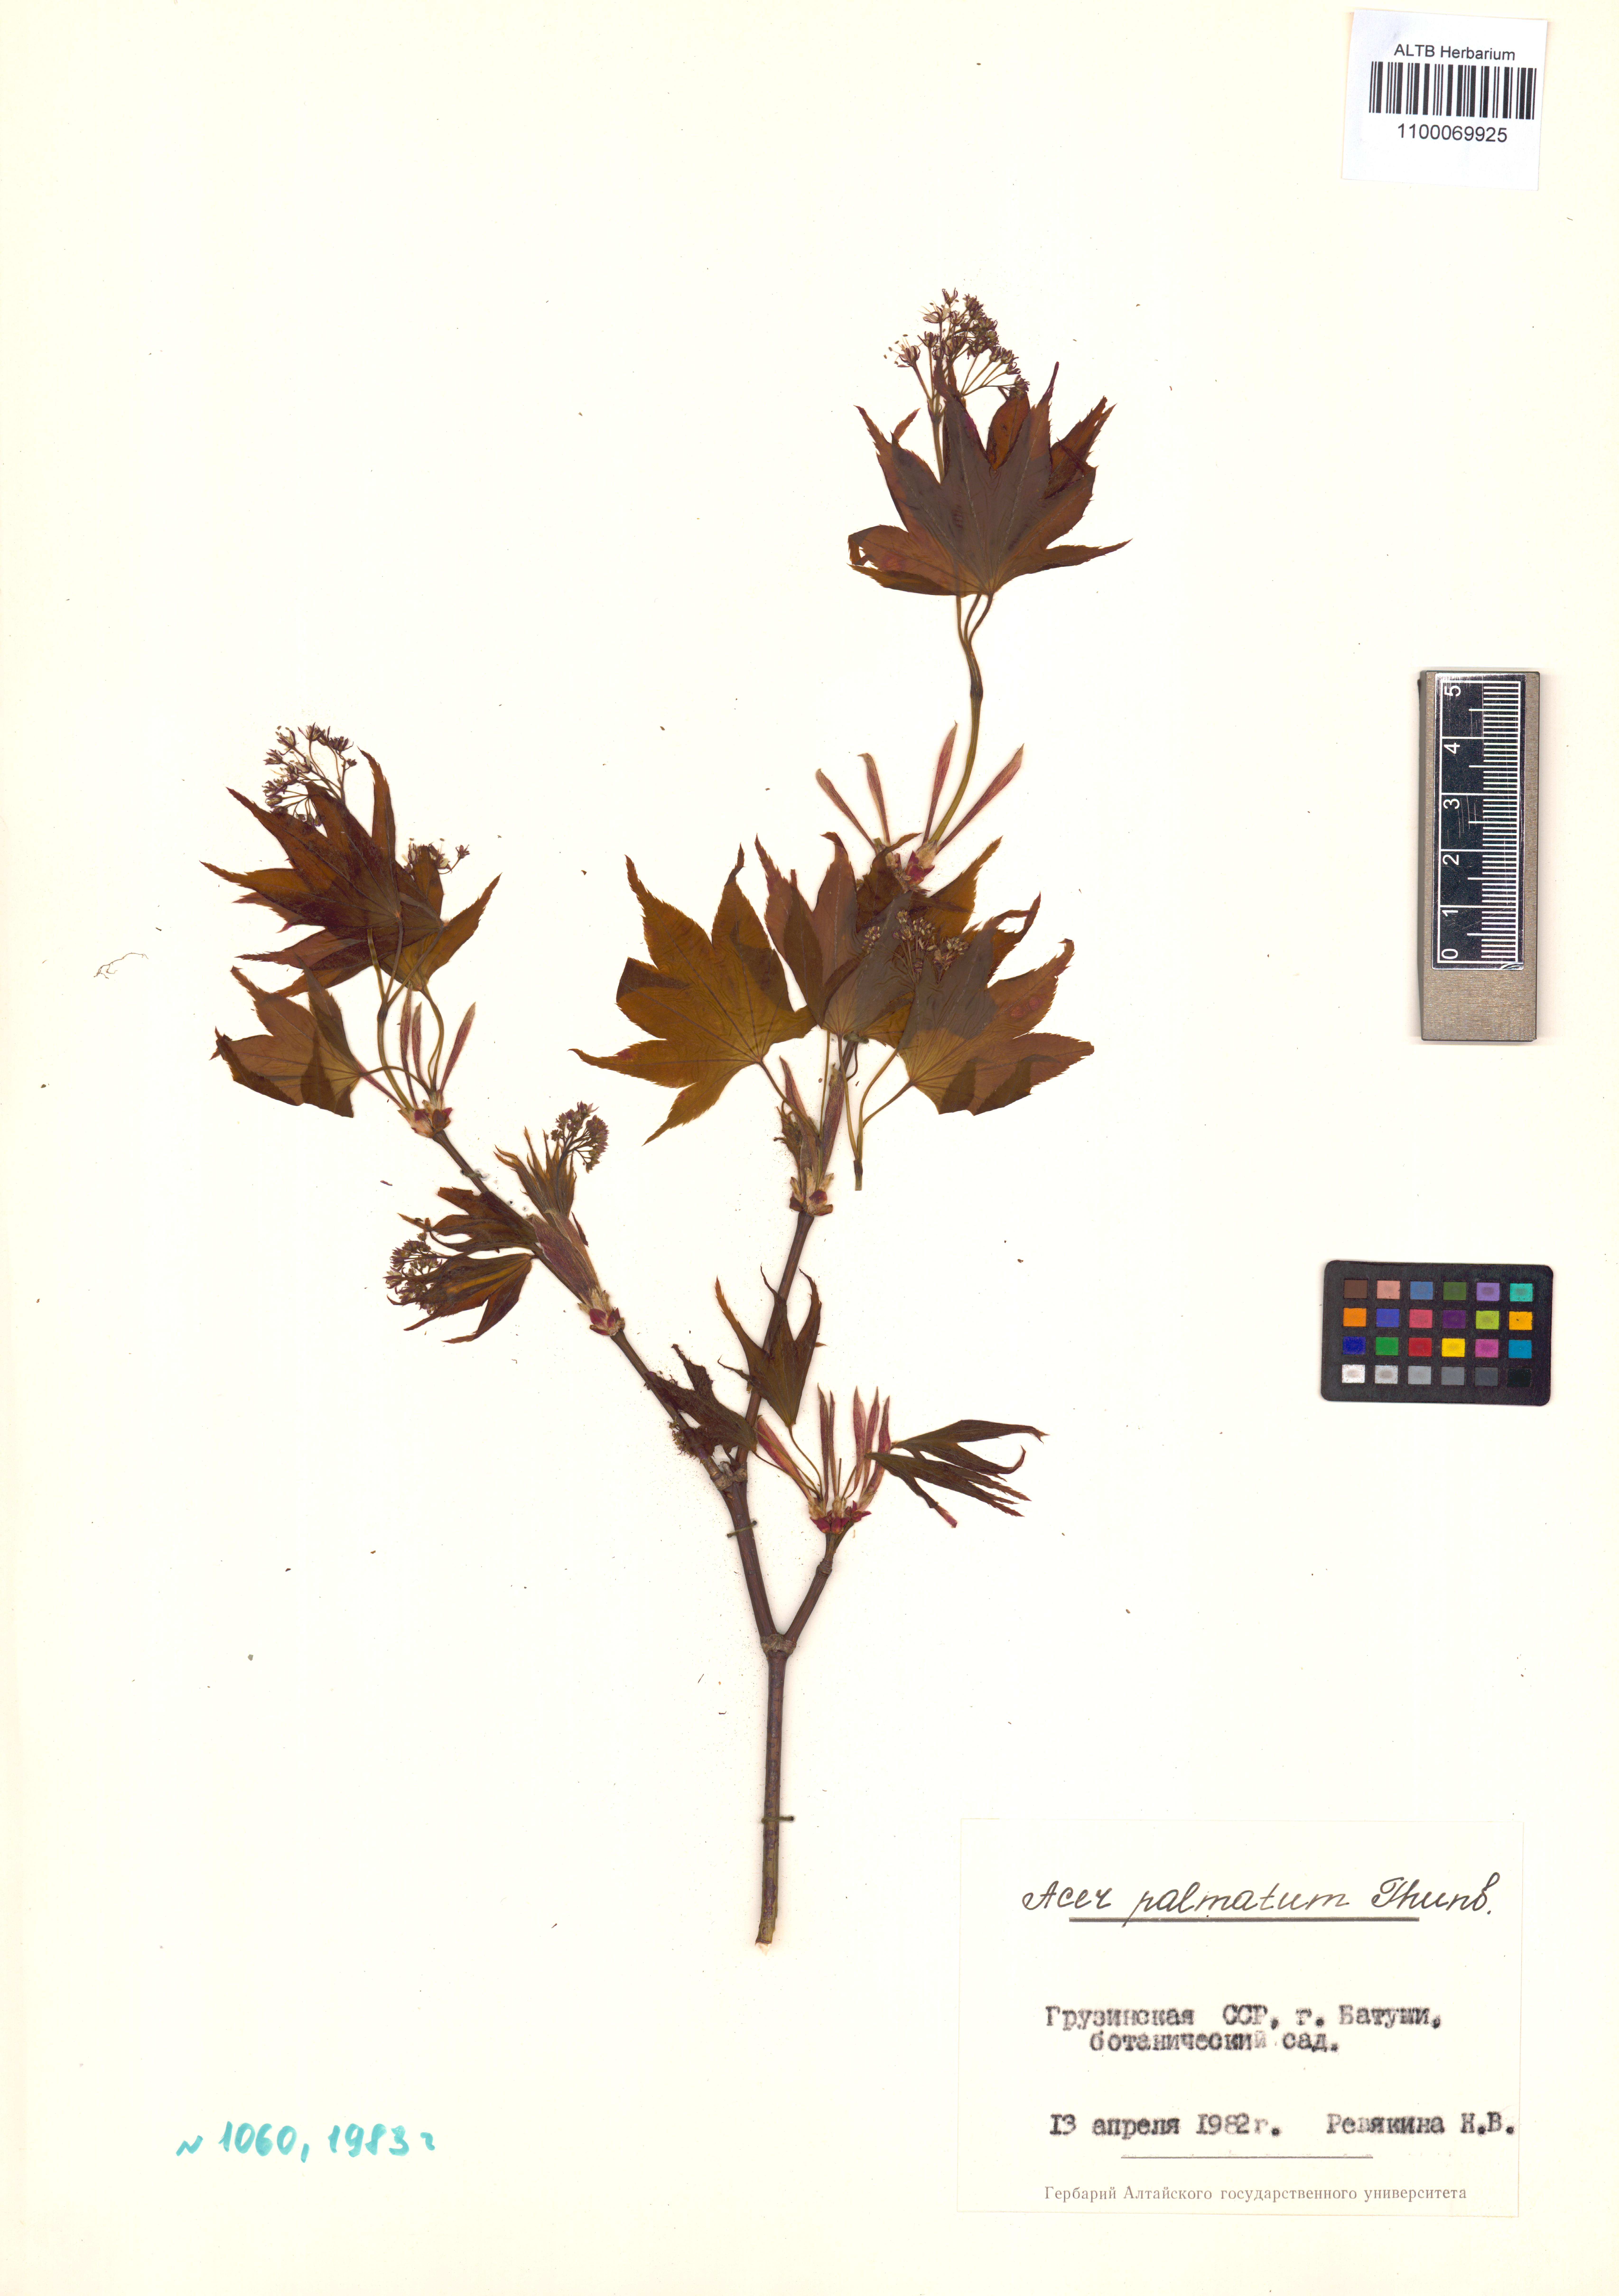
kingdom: Plantae
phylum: Tracheophyta
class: Magnoliopsida
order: Sapindales
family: Sapindaceae
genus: Acer
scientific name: Acer palmatum
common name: Japanese maple
